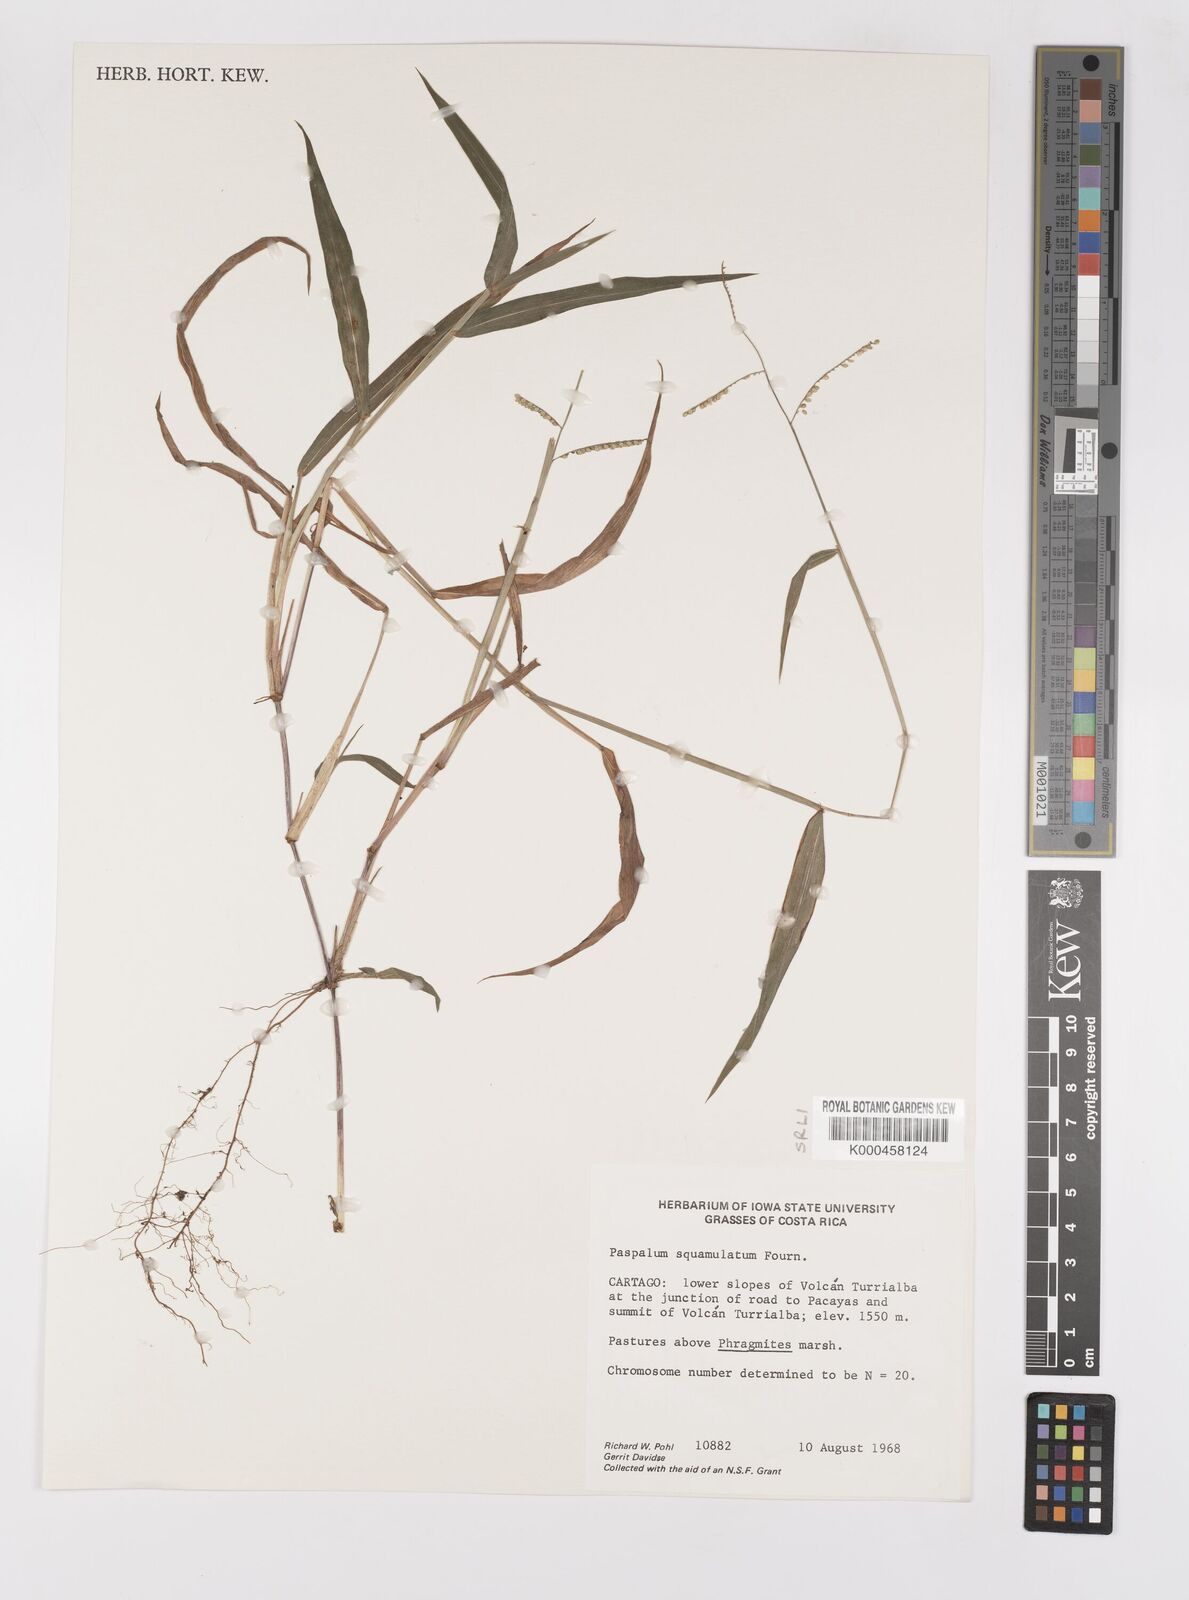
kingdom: Plantae
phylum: Tracheophyta
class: Liliopsida
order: Poales
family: Poaceae
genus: Paspalum
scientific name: Paspalum
